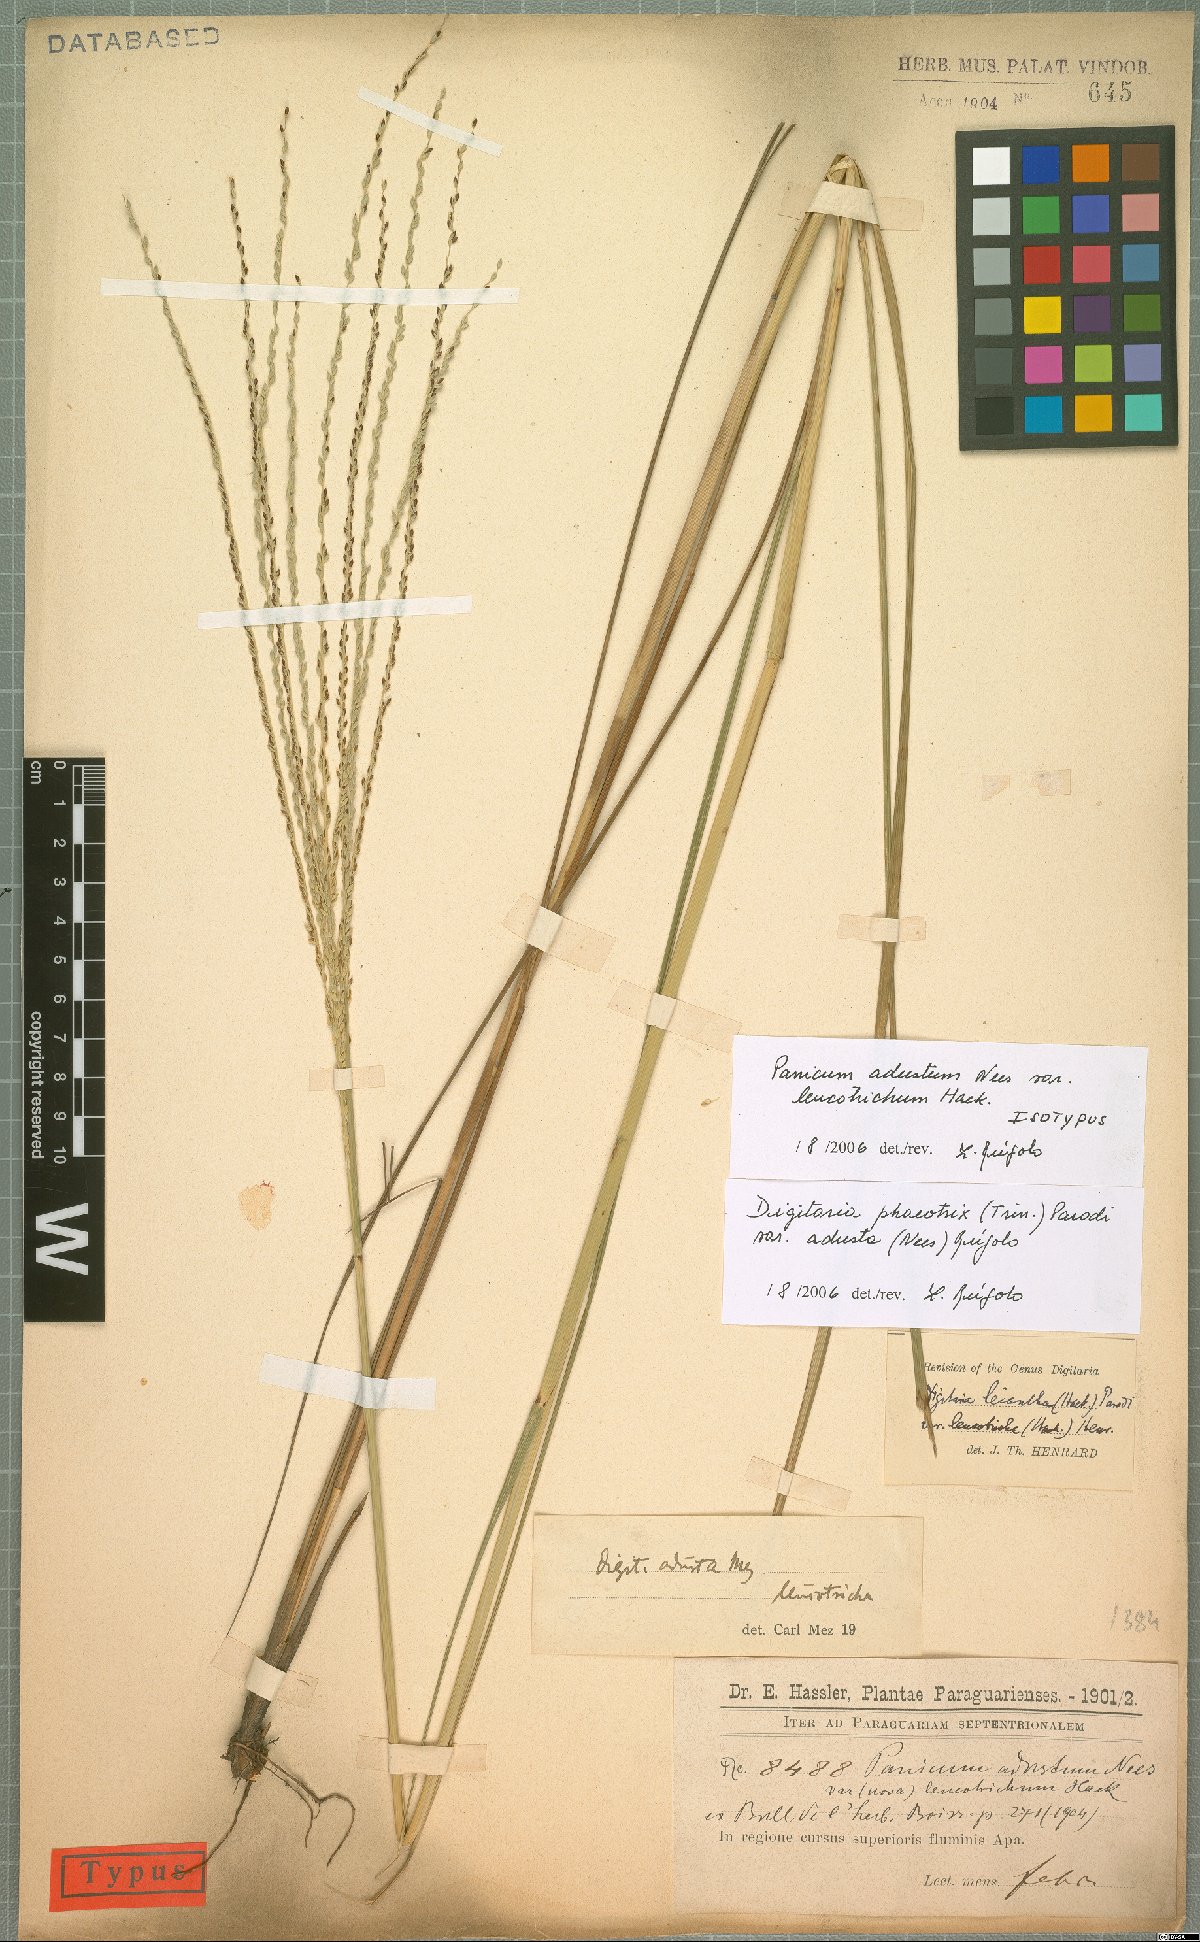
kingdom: Plantae
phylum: Tracheophyta
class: Liliopsida
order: Poales
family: Poaceae
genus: Digitaria
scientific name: Digitaria phaeothrix
